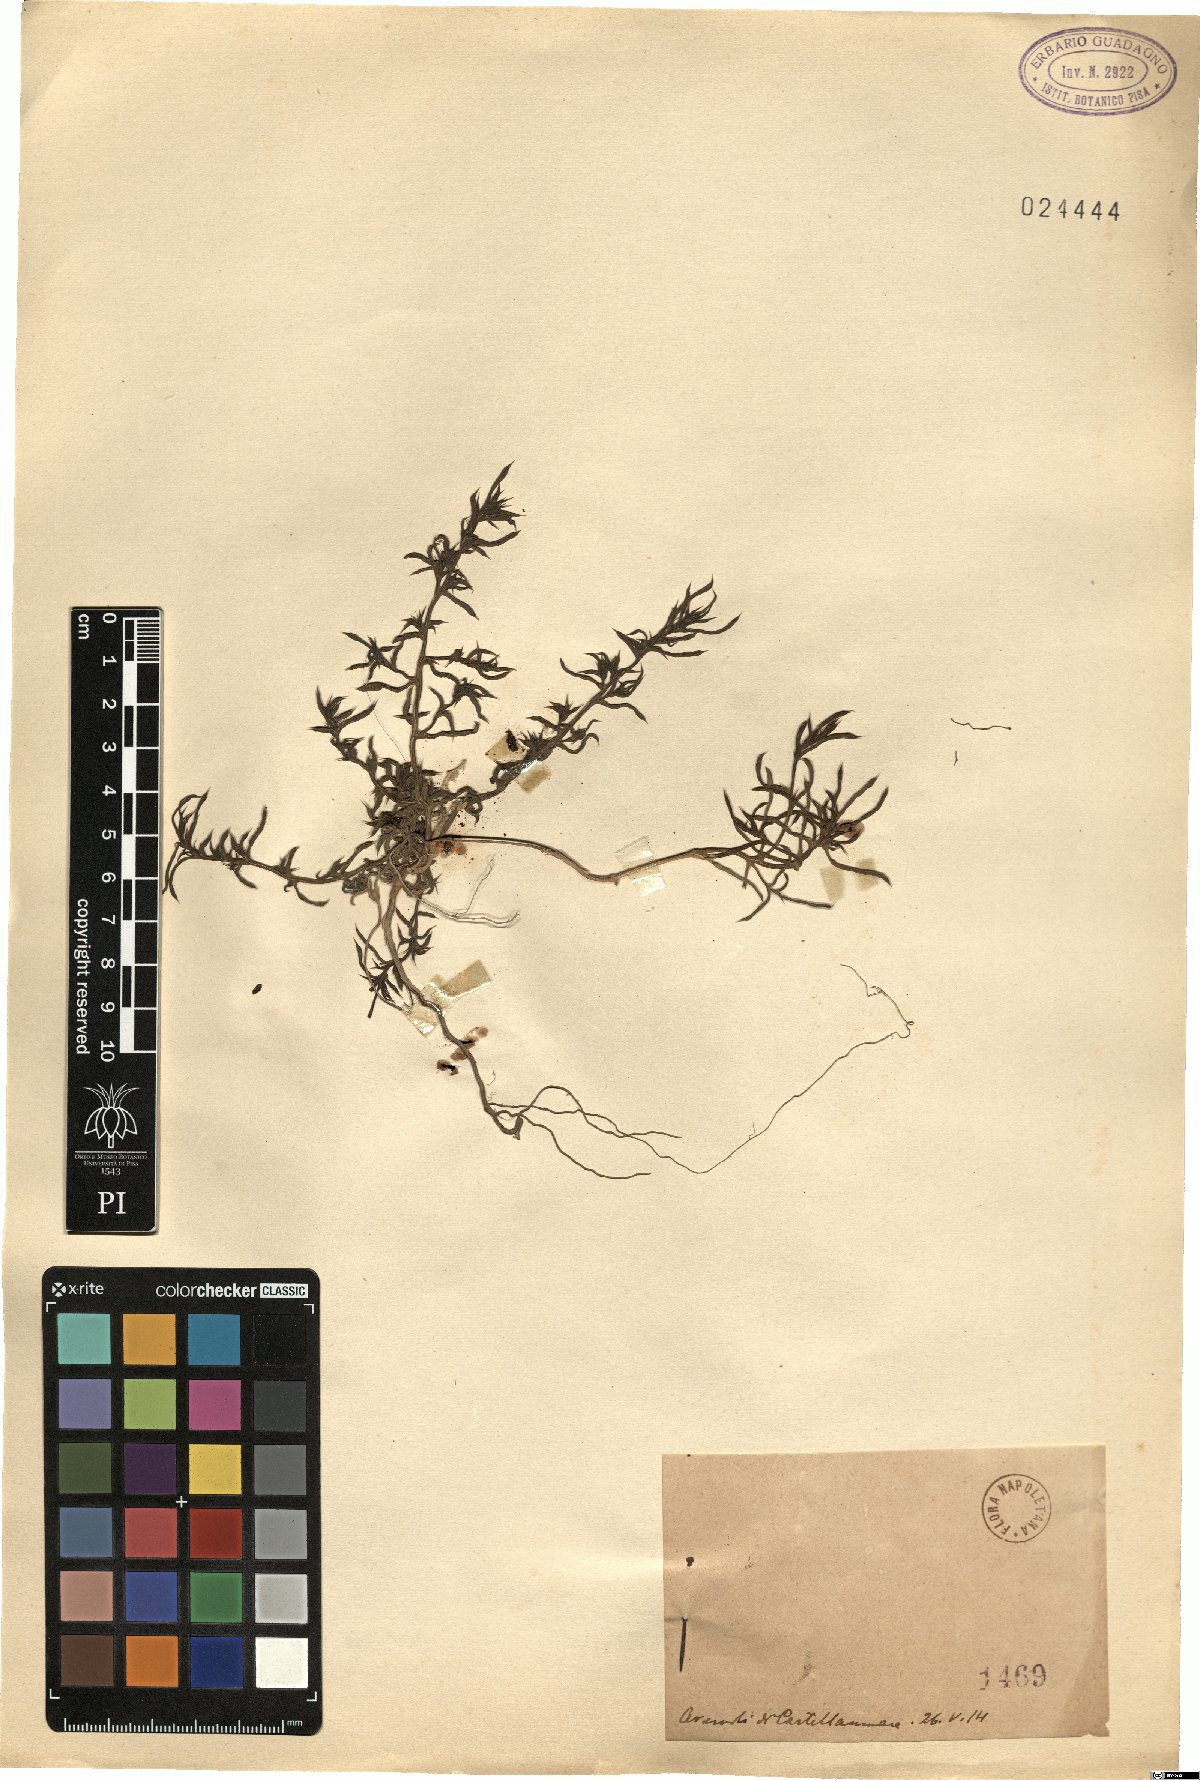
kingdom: Plantae
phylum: Tracheophyta
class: Magnoliopsida
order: Caryophyllales
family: Amaranthaceae
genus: Salsola
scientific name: Salsola
